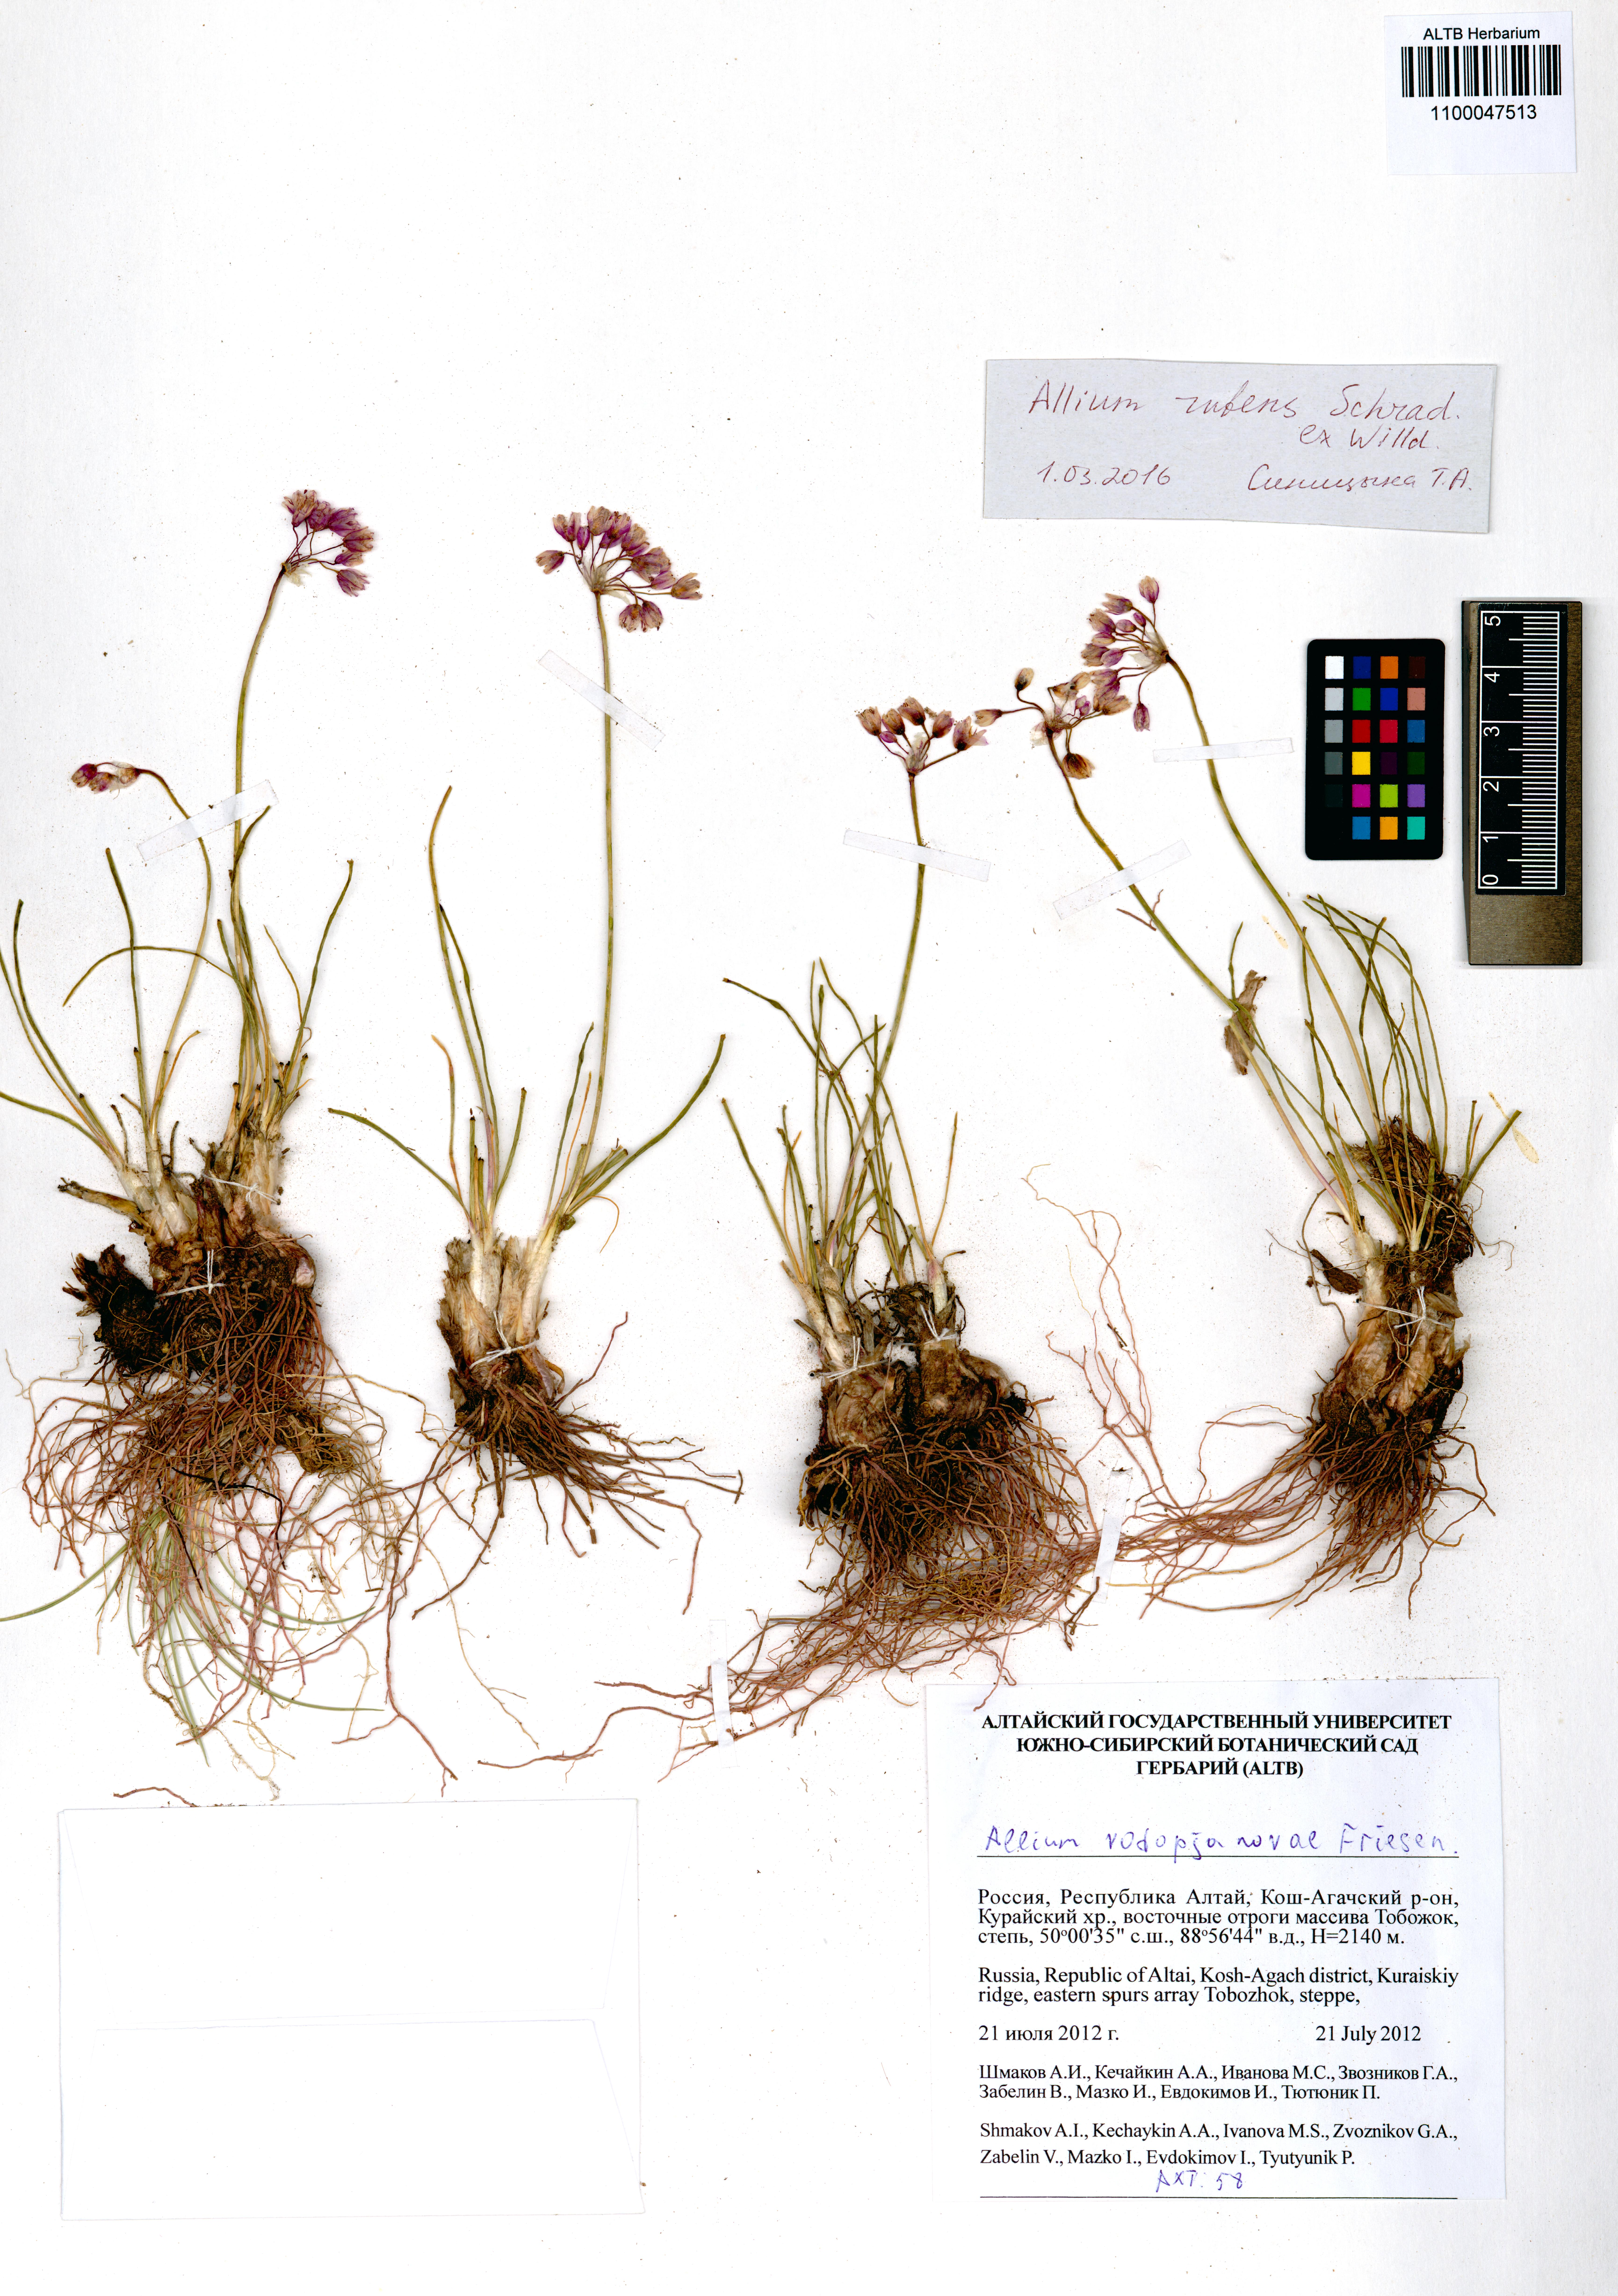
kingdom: Plantae
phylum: Tracheophyta
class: Liliopsida
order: Asparagales
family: Amaryllidaceae
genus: Allium
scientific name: Allium rubens
